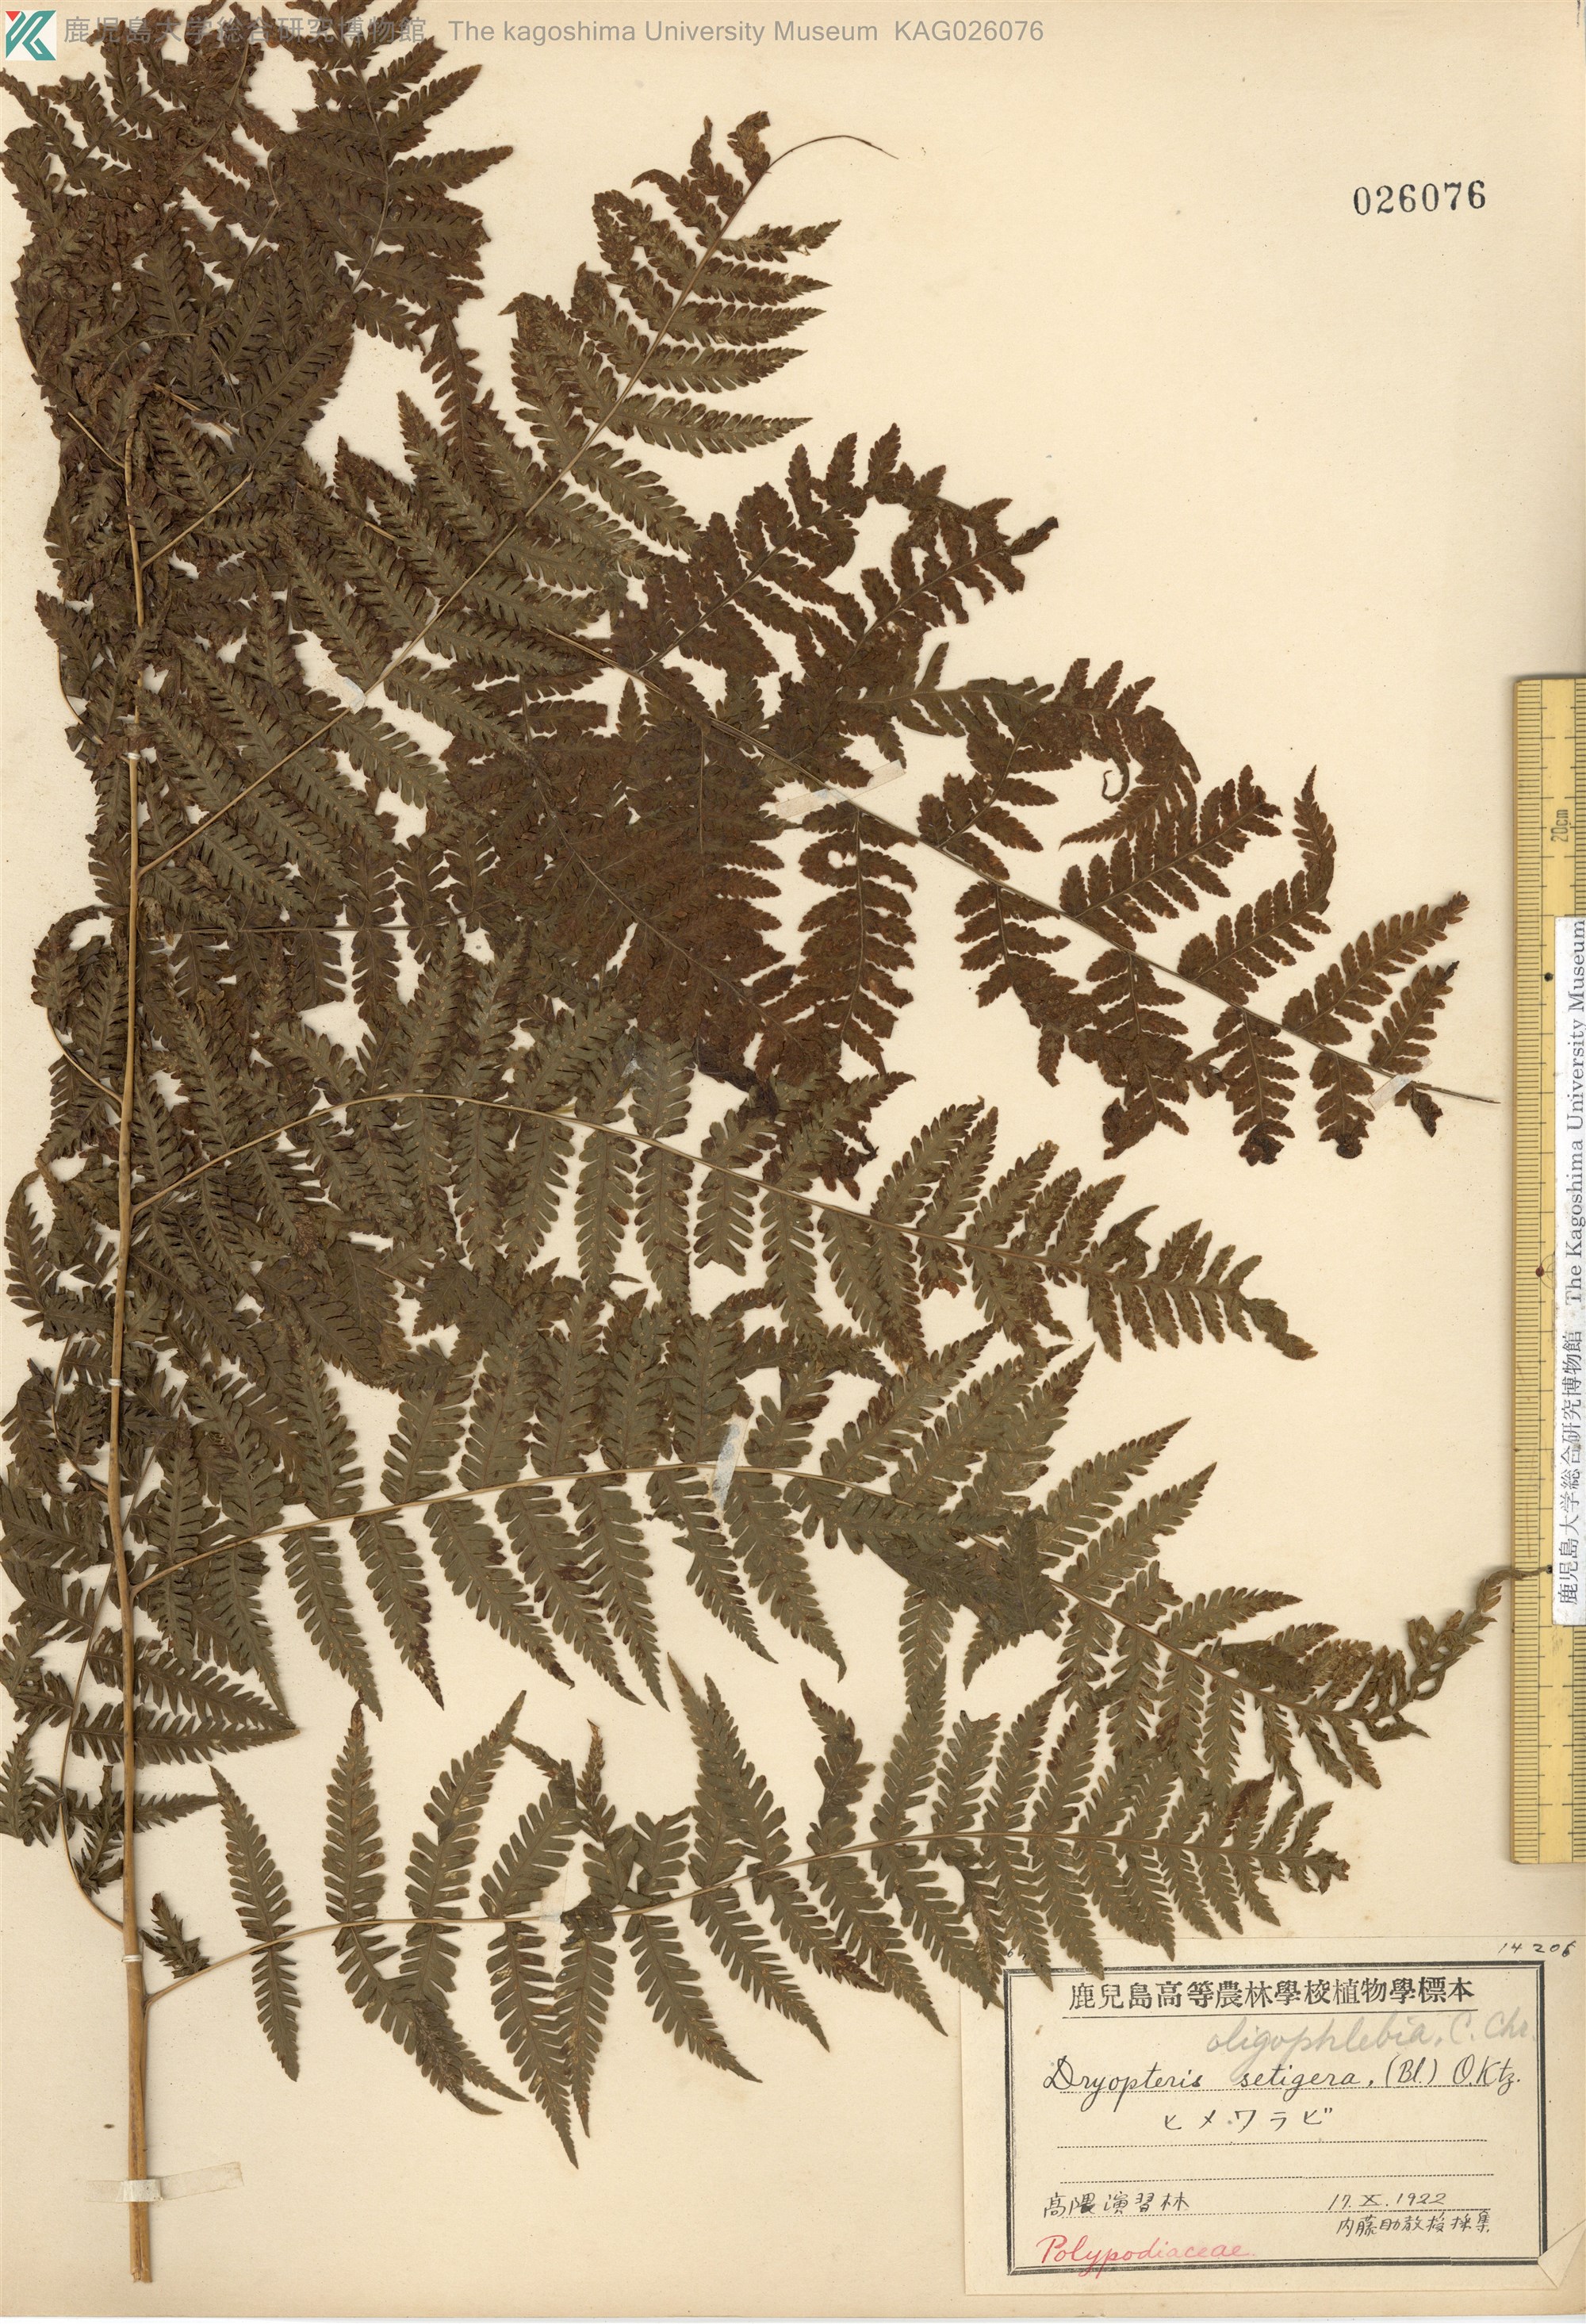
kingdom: Plantae
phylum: Tracheophyta
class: Polypodiopsida
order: Polypodiales
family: Thelypteridaceae
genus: Macrothelypteris
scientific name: Macrothelypteris oligophlebia
